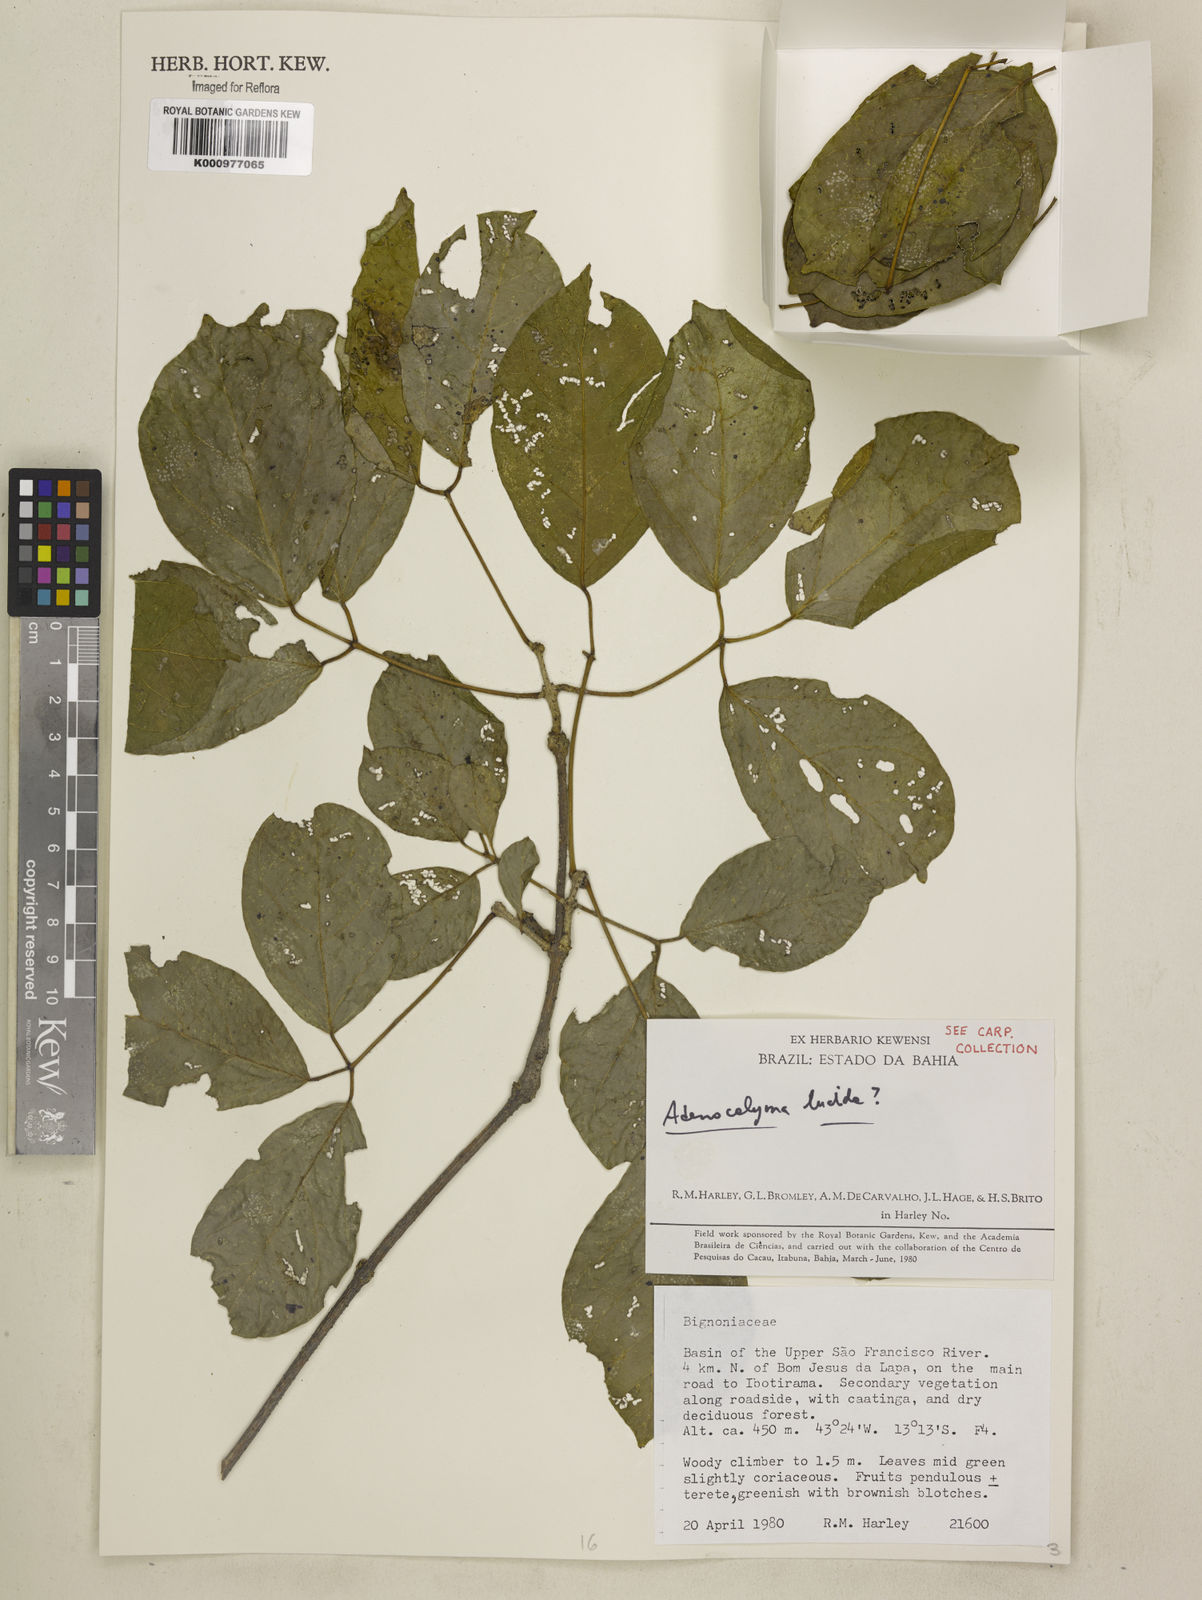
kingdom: Plantae
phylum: Tracheophyta
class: Magnoliopsida
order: Lamiales
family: Bignoniaceae
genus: Adenocalymma
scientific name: Adenocalymma
